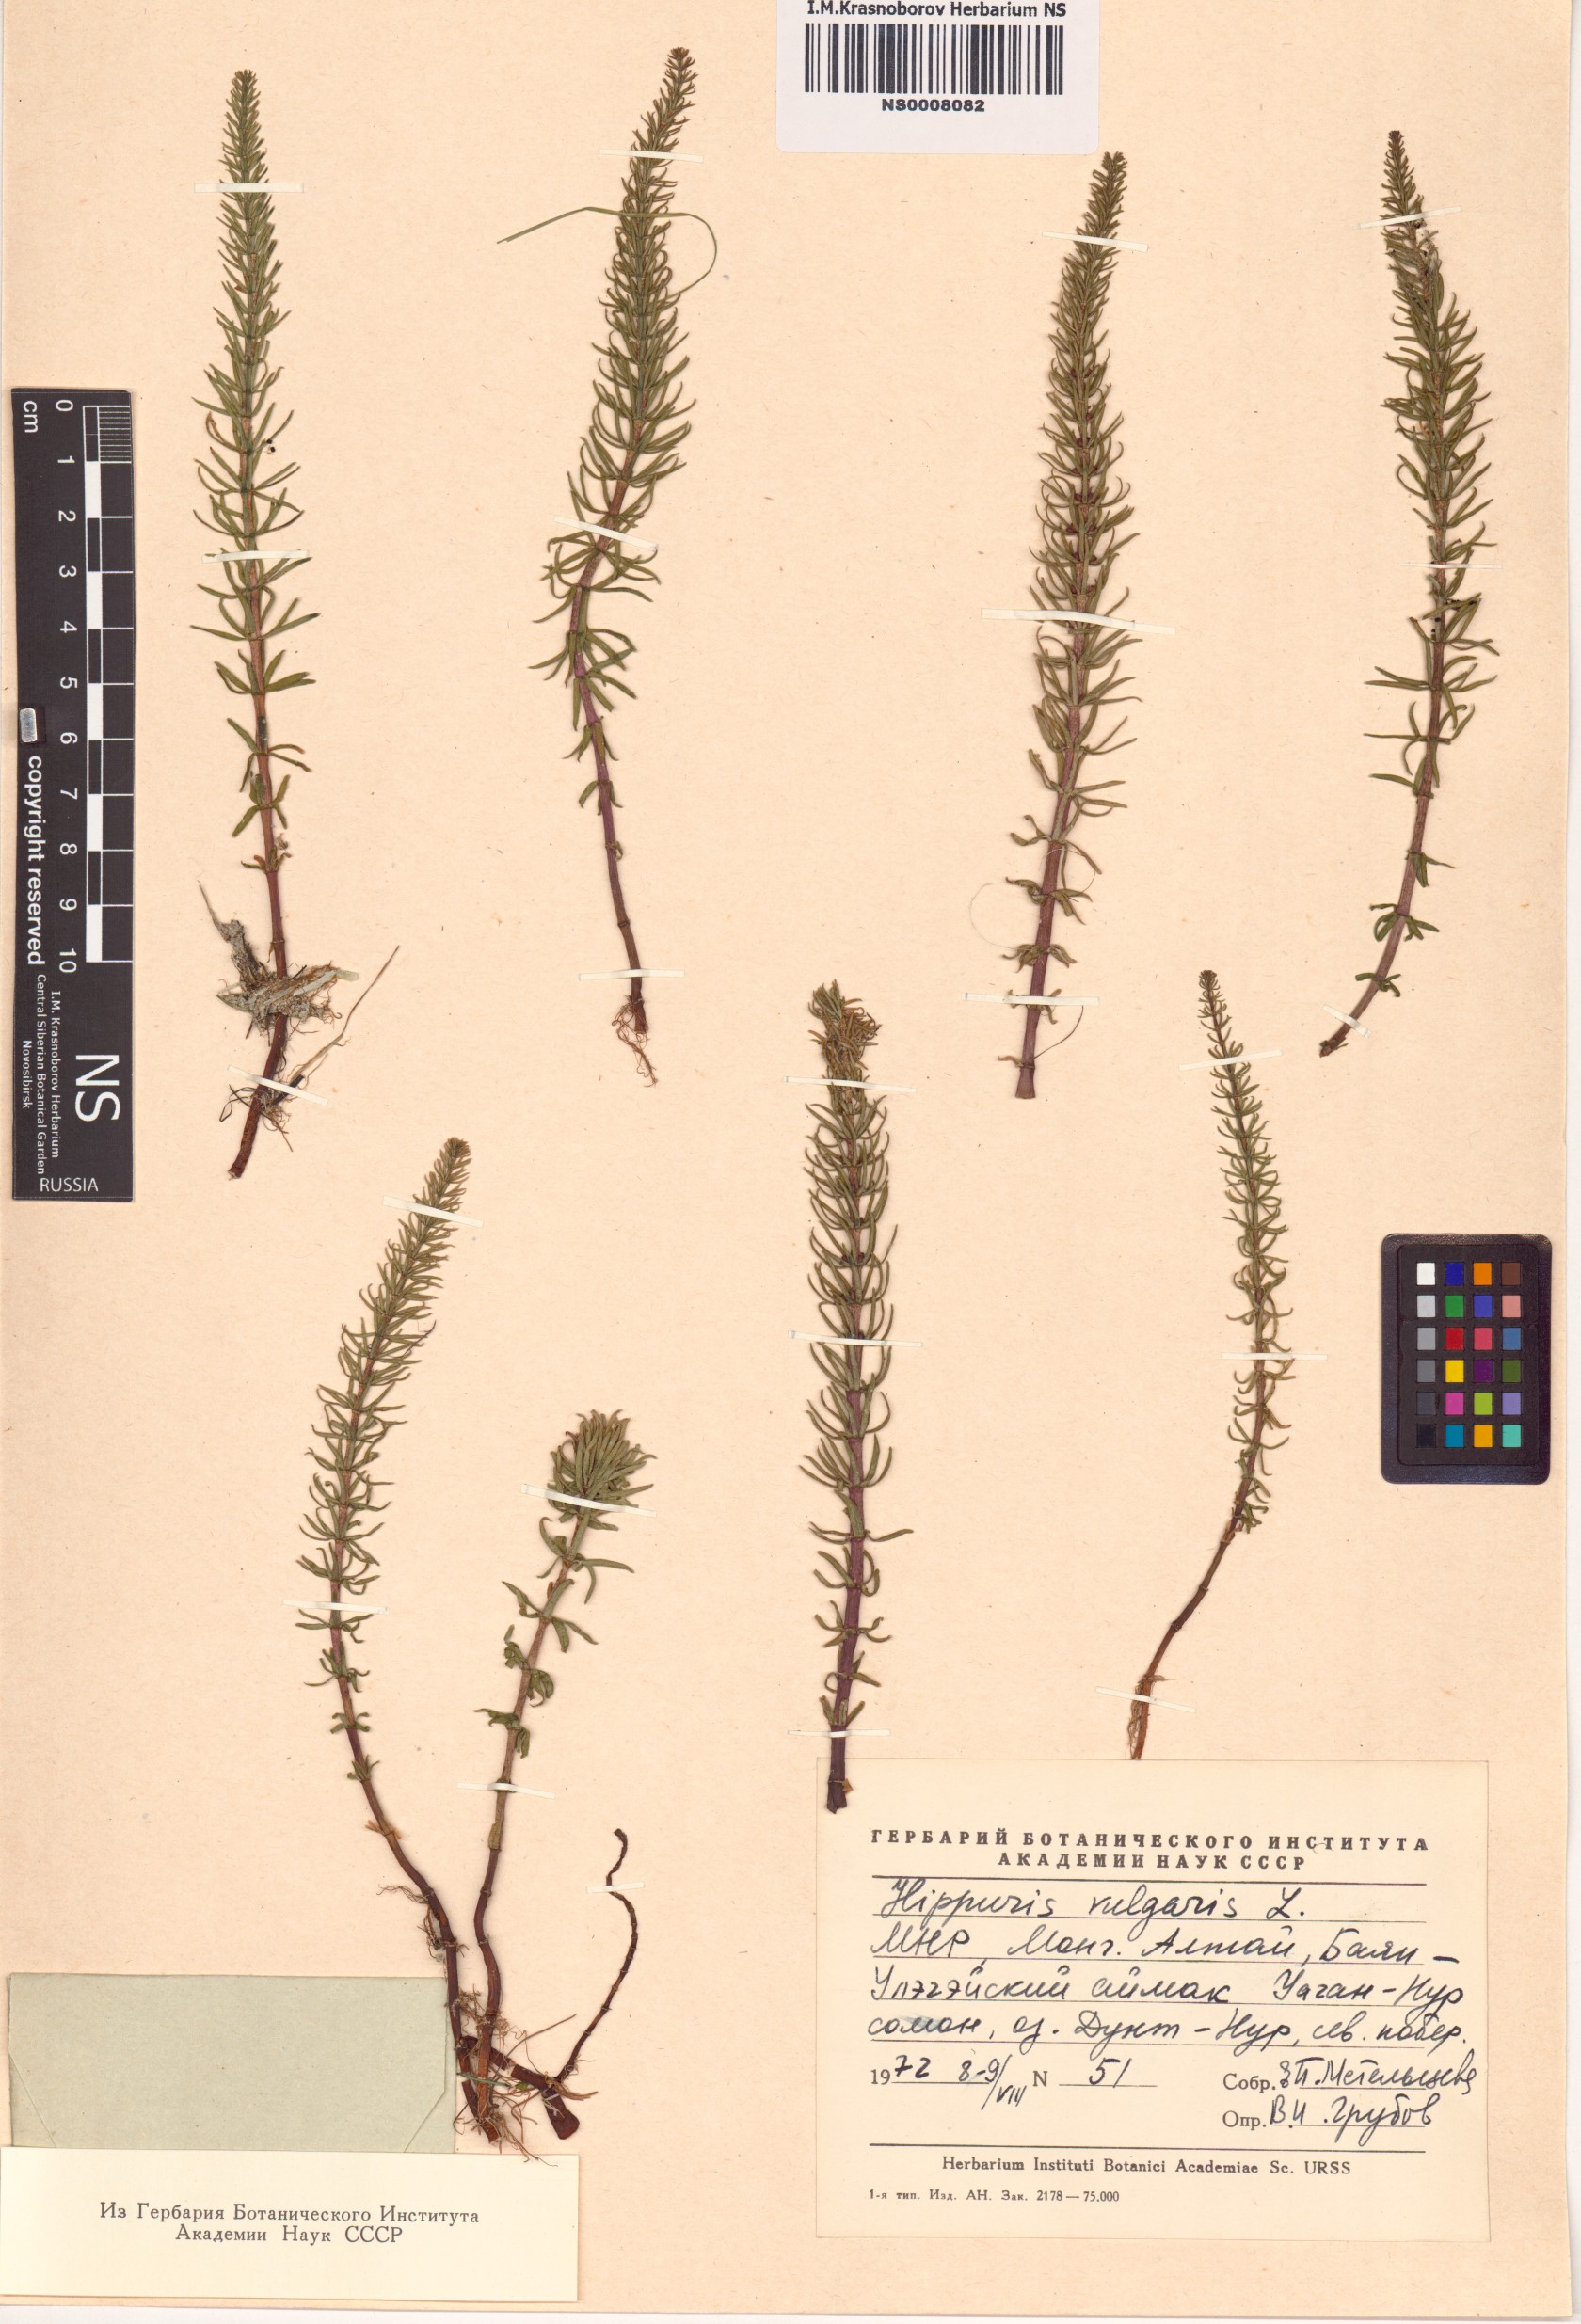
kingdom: Plantae
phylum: Tracheophyta
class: Magnoliopsida
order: Lamiales
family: Plantaginaceae
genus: Hippuris
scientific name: Hippuris vulgaris
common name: Mare's-tail
